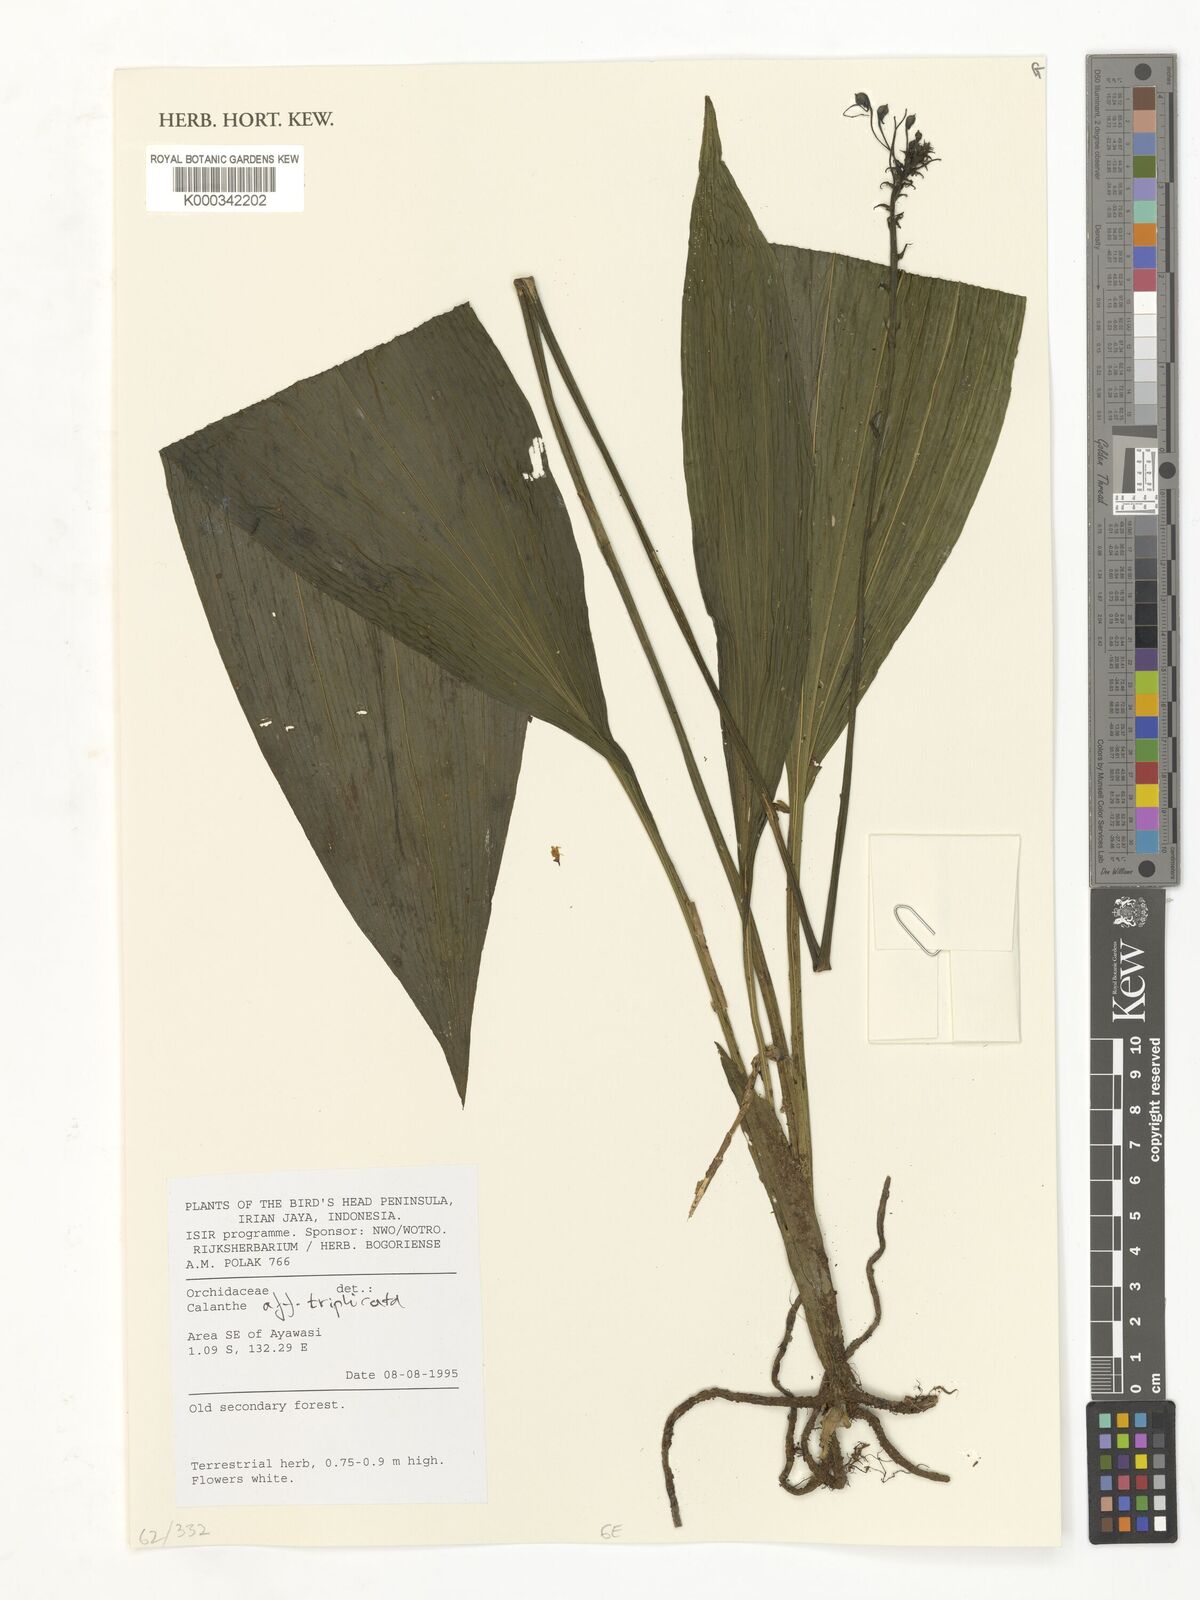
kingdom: Plantae
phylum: Tracheophyta
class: Liliopsida
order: Asparagales
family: Orchidaceae
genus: Calanthe
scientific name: Calanthe
